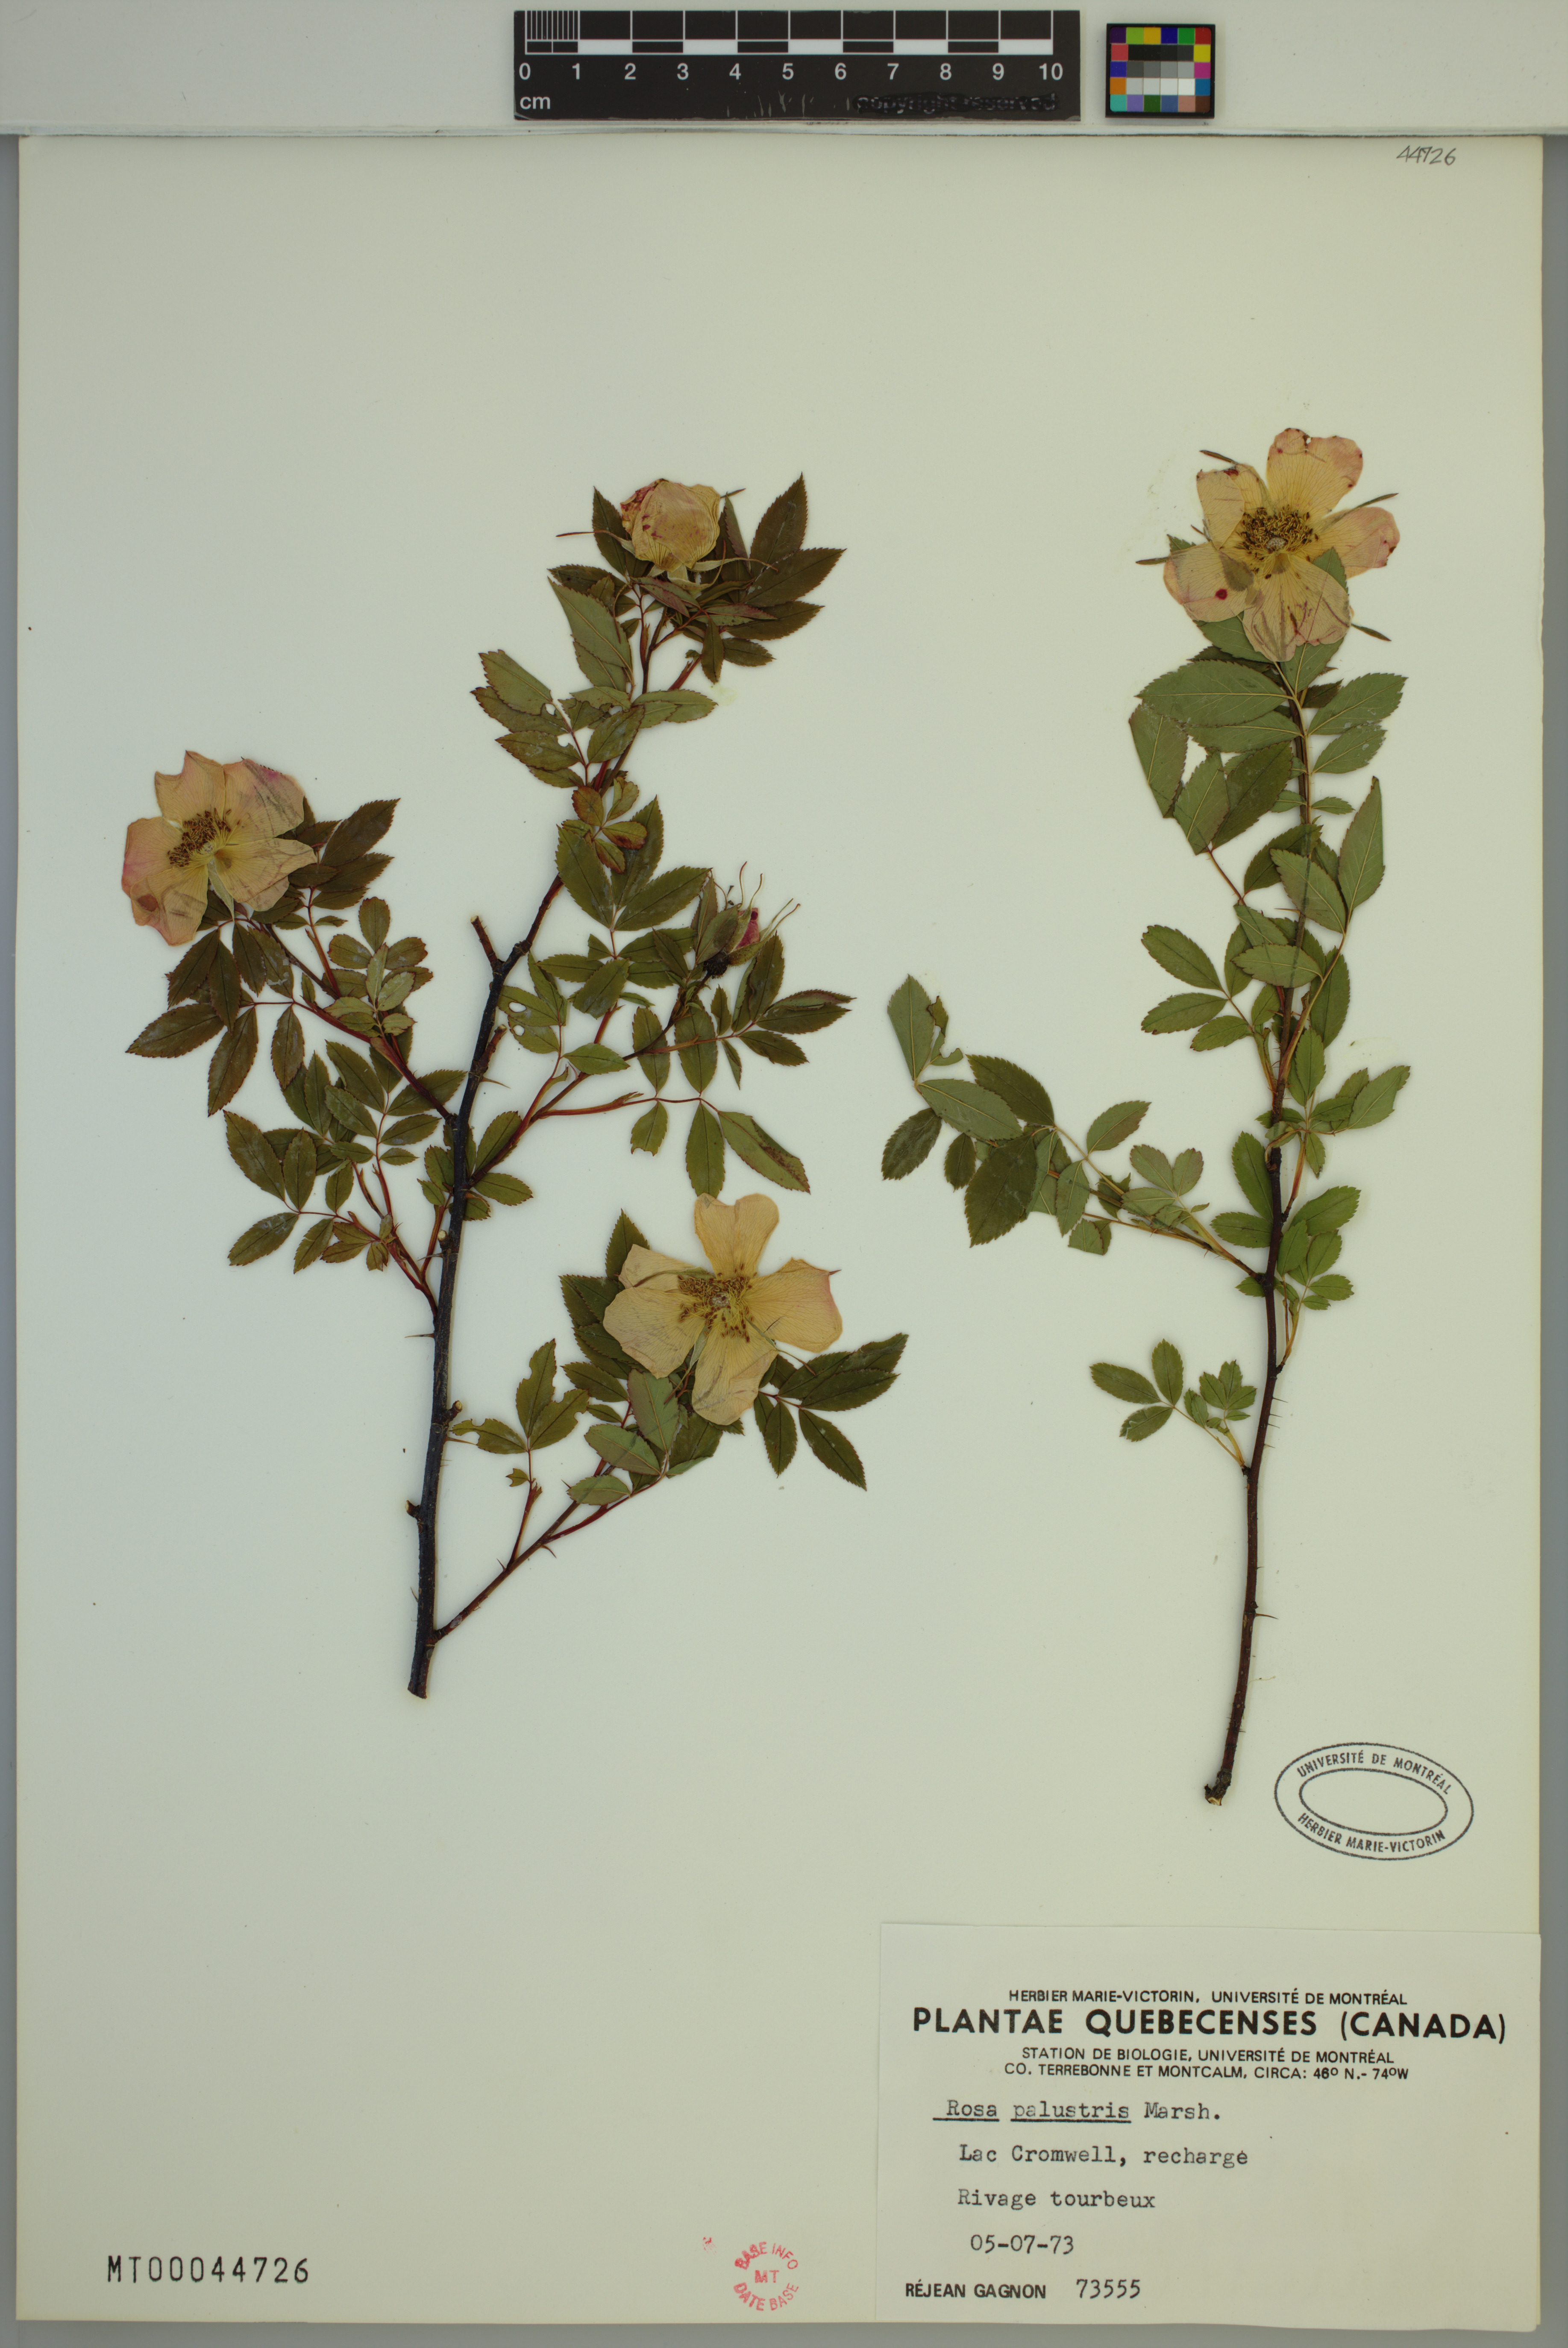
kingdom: Plantae
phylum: Tracheophyta
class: Magnoliopsida
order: Rosales
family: Rosaceae
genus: Rosa
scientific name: Rosa palustris
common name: Swamp rose
